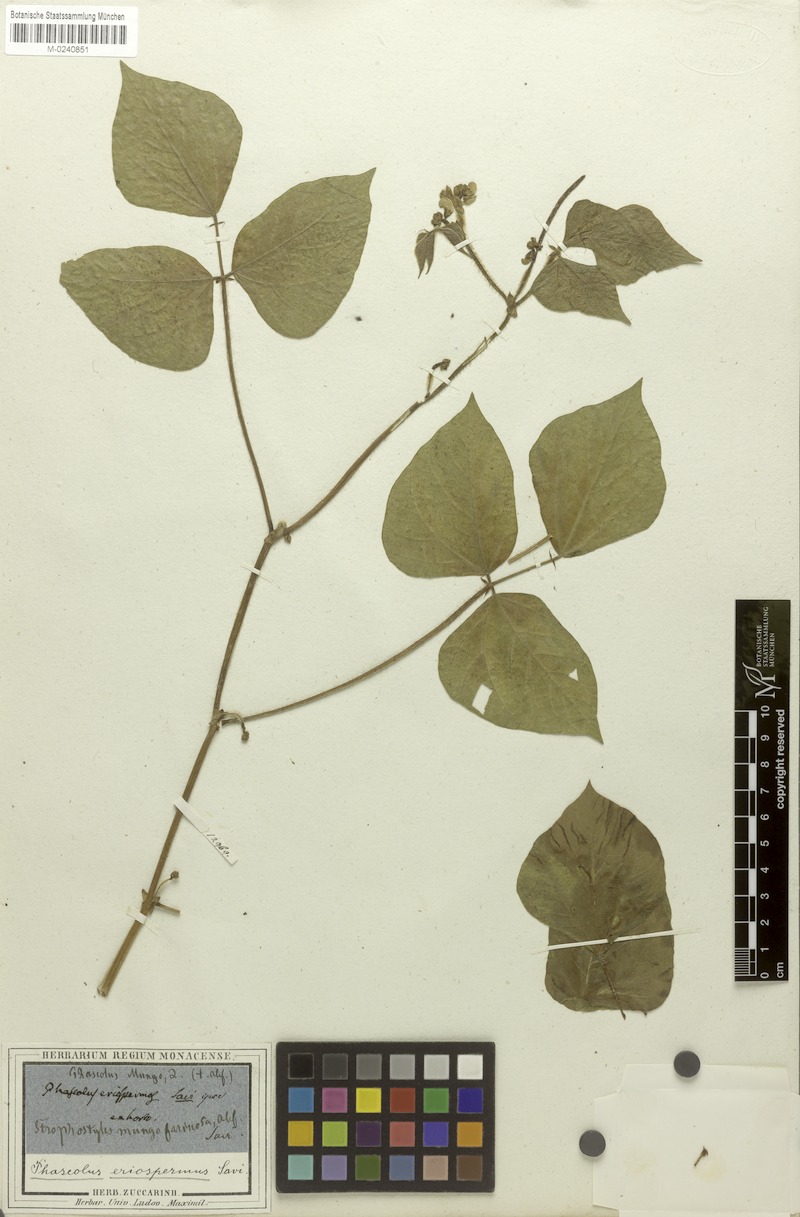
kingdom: Plantae
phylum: Tracheophyta
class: Magnoliopsida
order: Fabales
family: Fabaceae
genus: Vigna
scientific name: Vigna mungo
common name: Black gram
